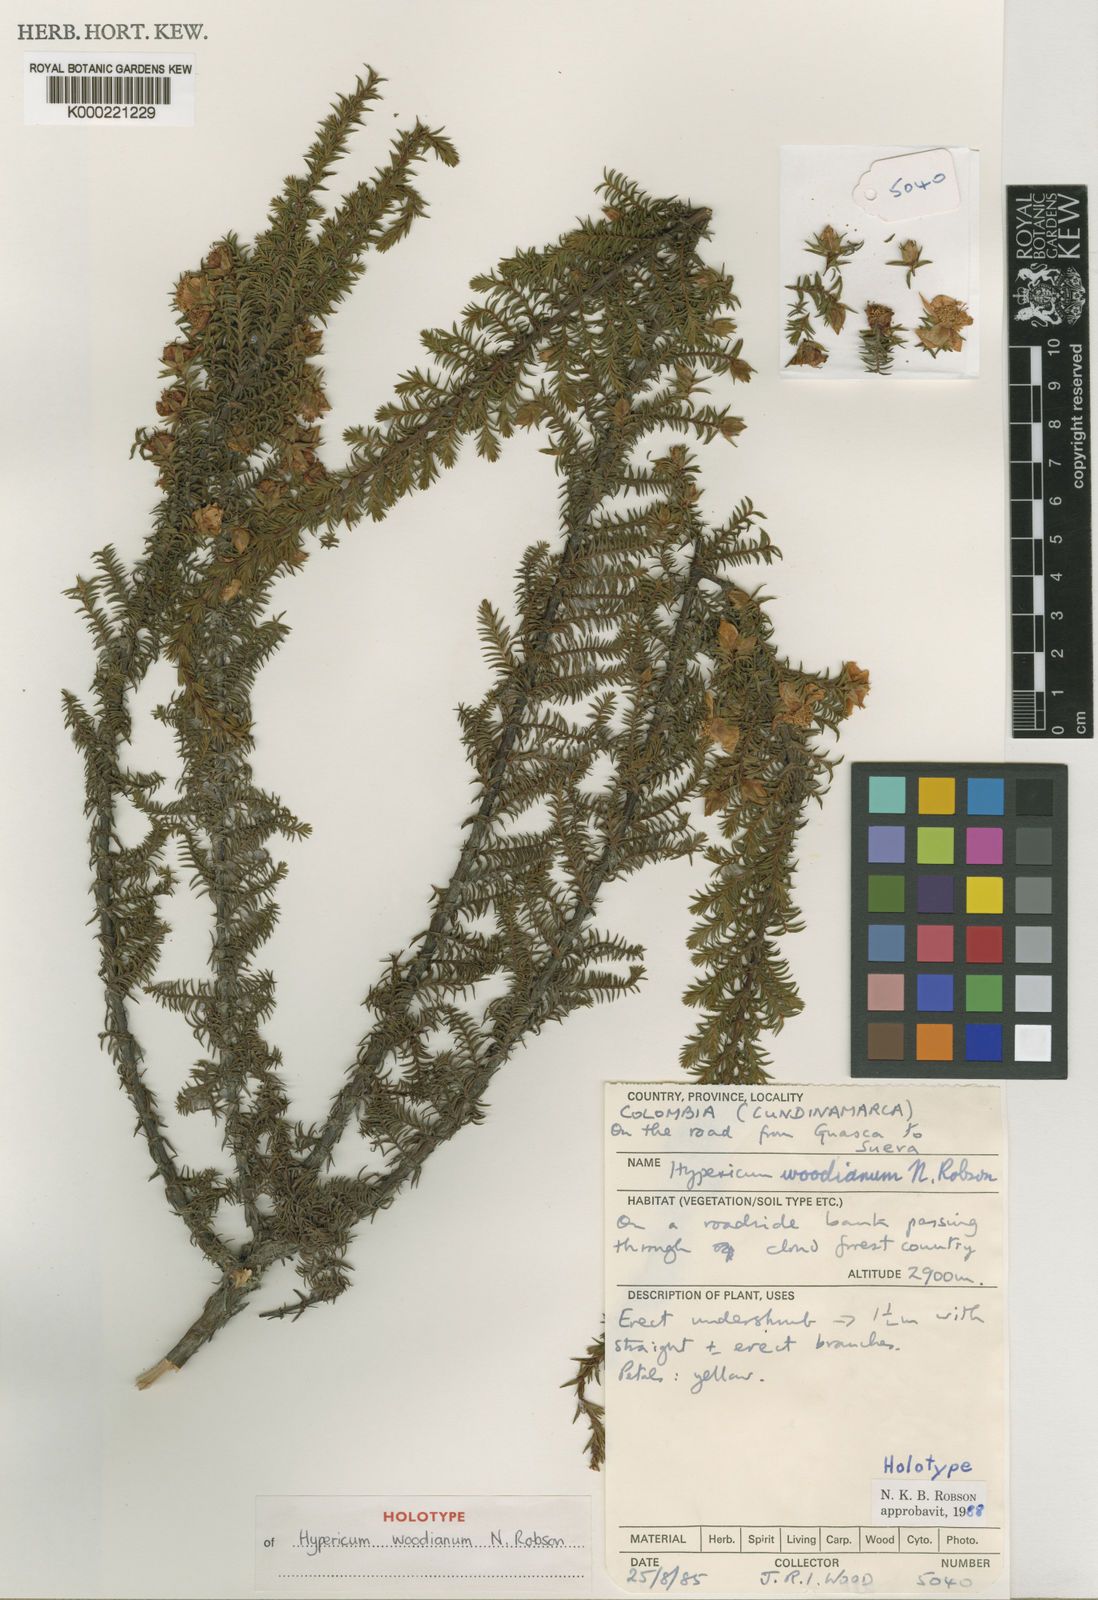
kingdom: Plantae
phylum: Tracheophyta
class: Magnoliopsida
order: Malpighiales
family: Hypericaceae
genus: Hypericum
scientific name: Hypericum woodianum
